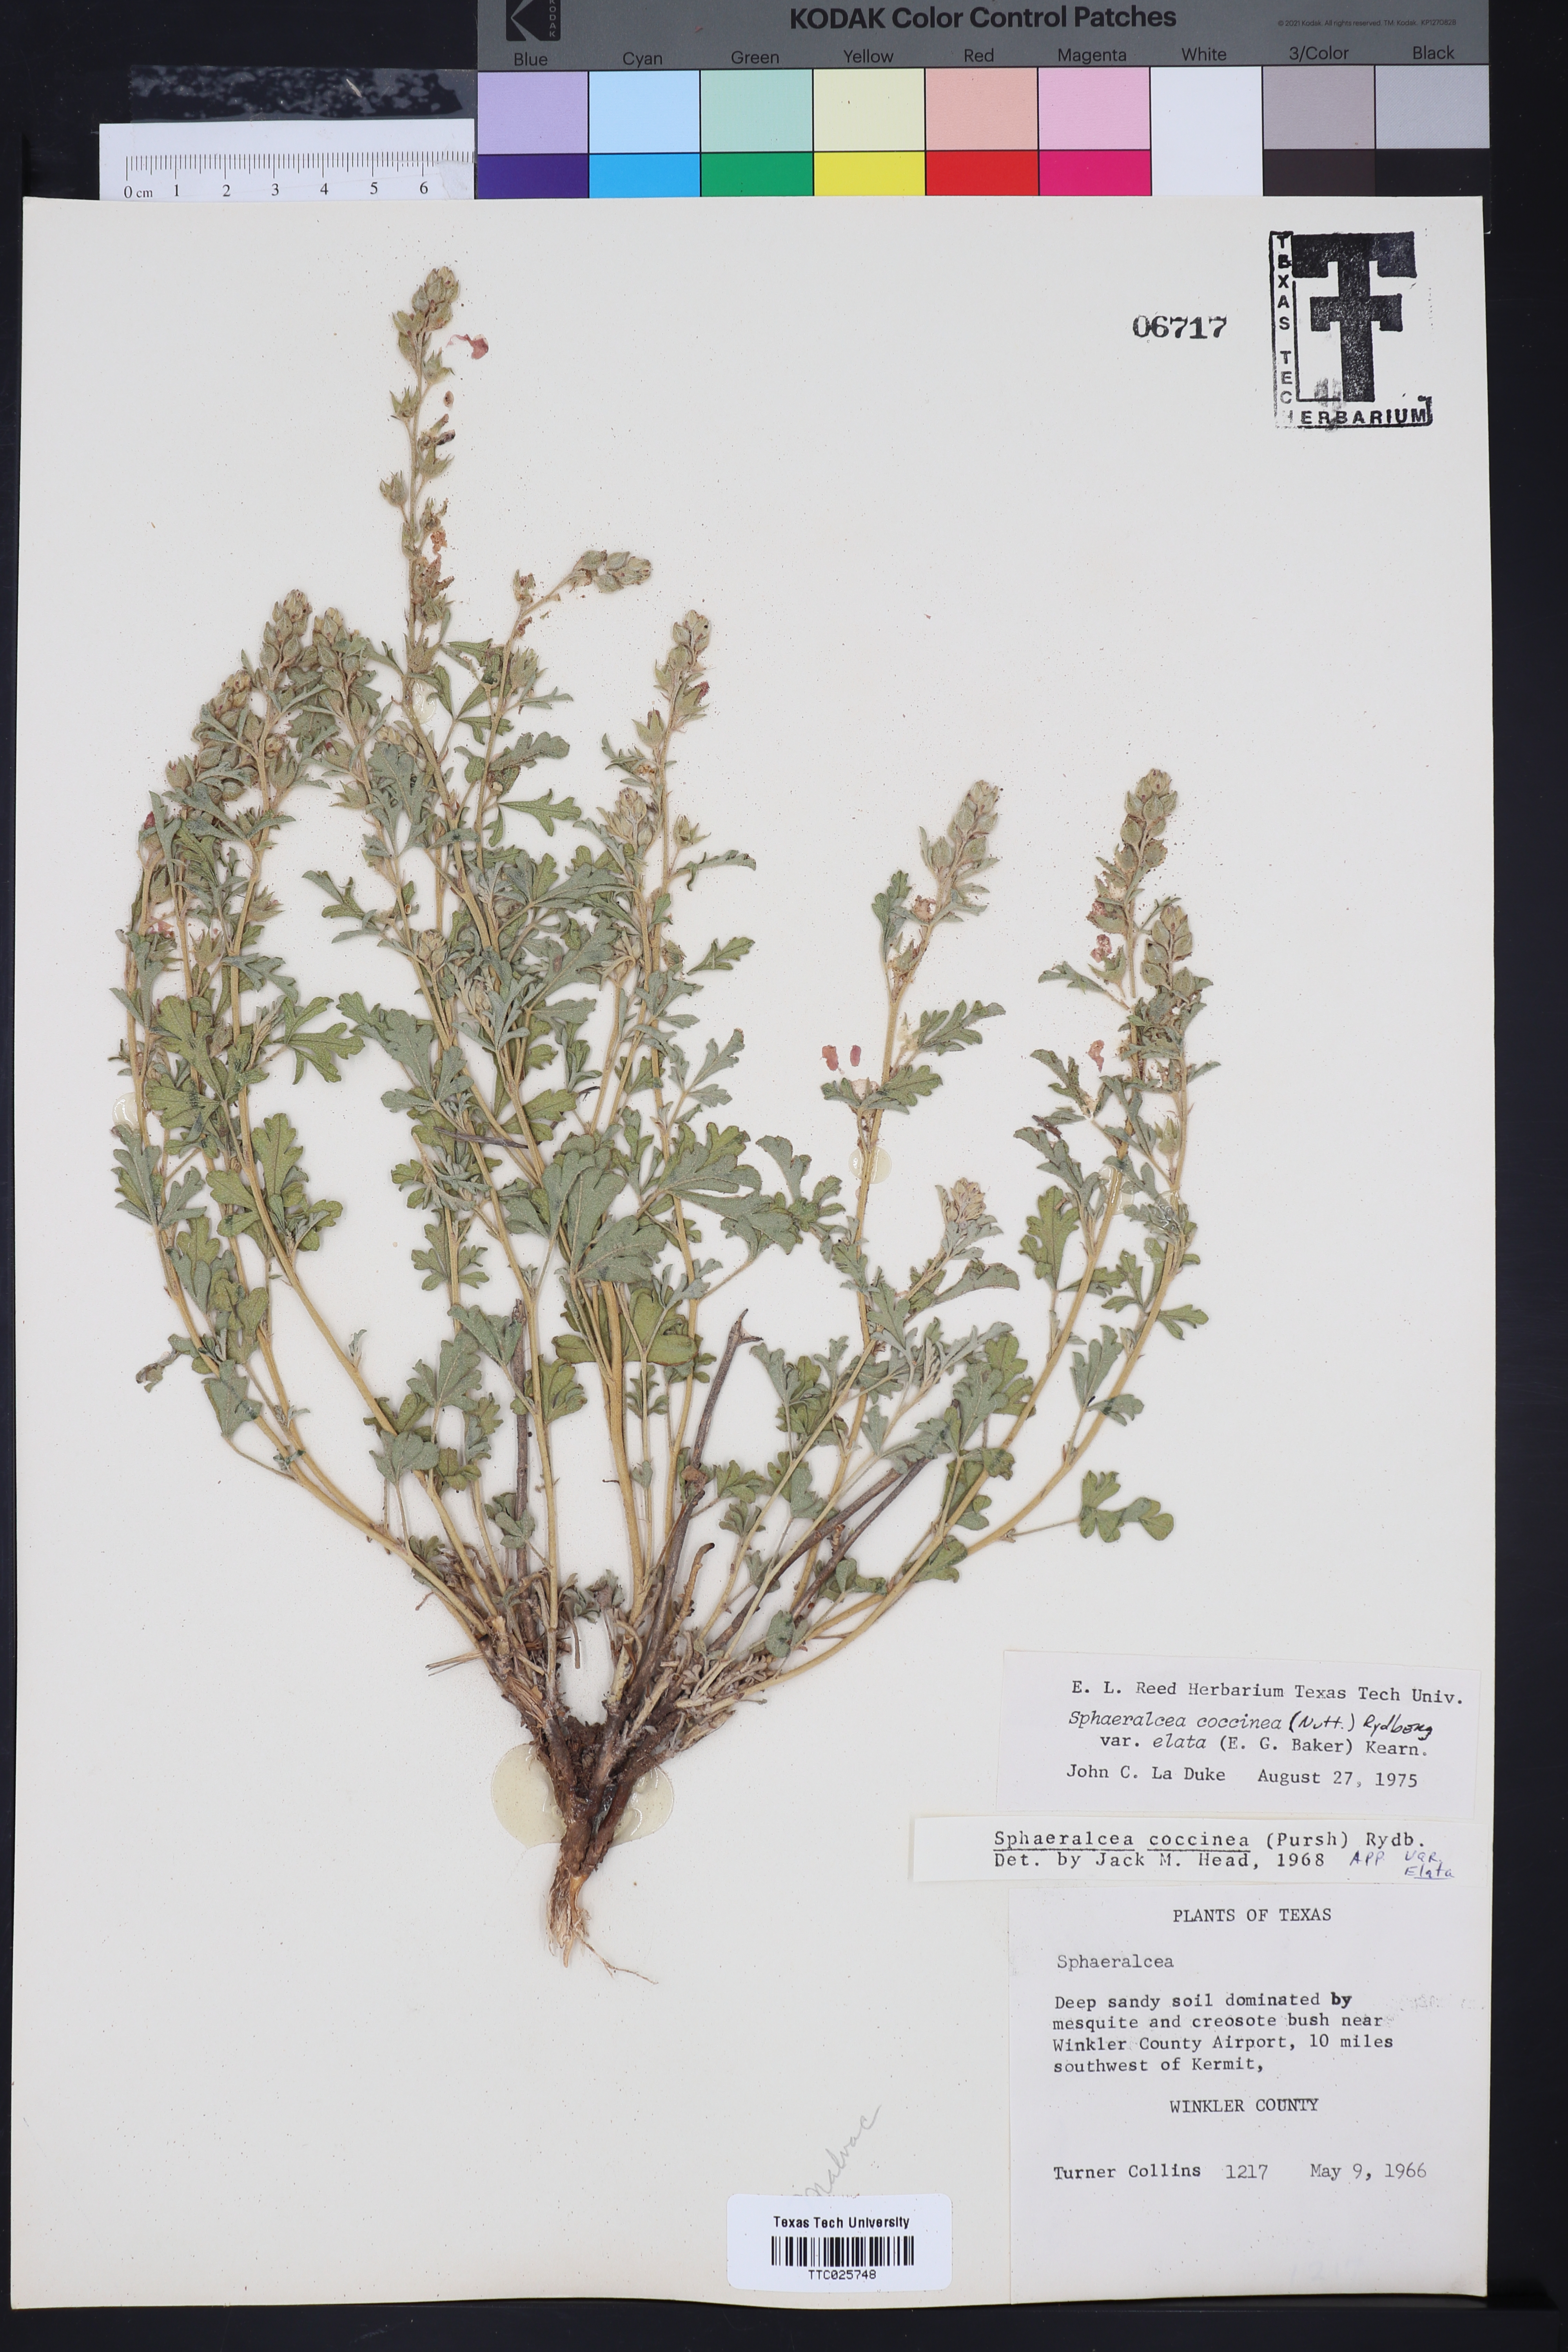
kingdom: Plantae
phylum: Tracheophyta
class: Magnoliopsida
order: Malvales
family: Malvaceae
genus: Sphaeralcea
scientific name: Sphaeralcea coccinea
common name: Moss-rose
